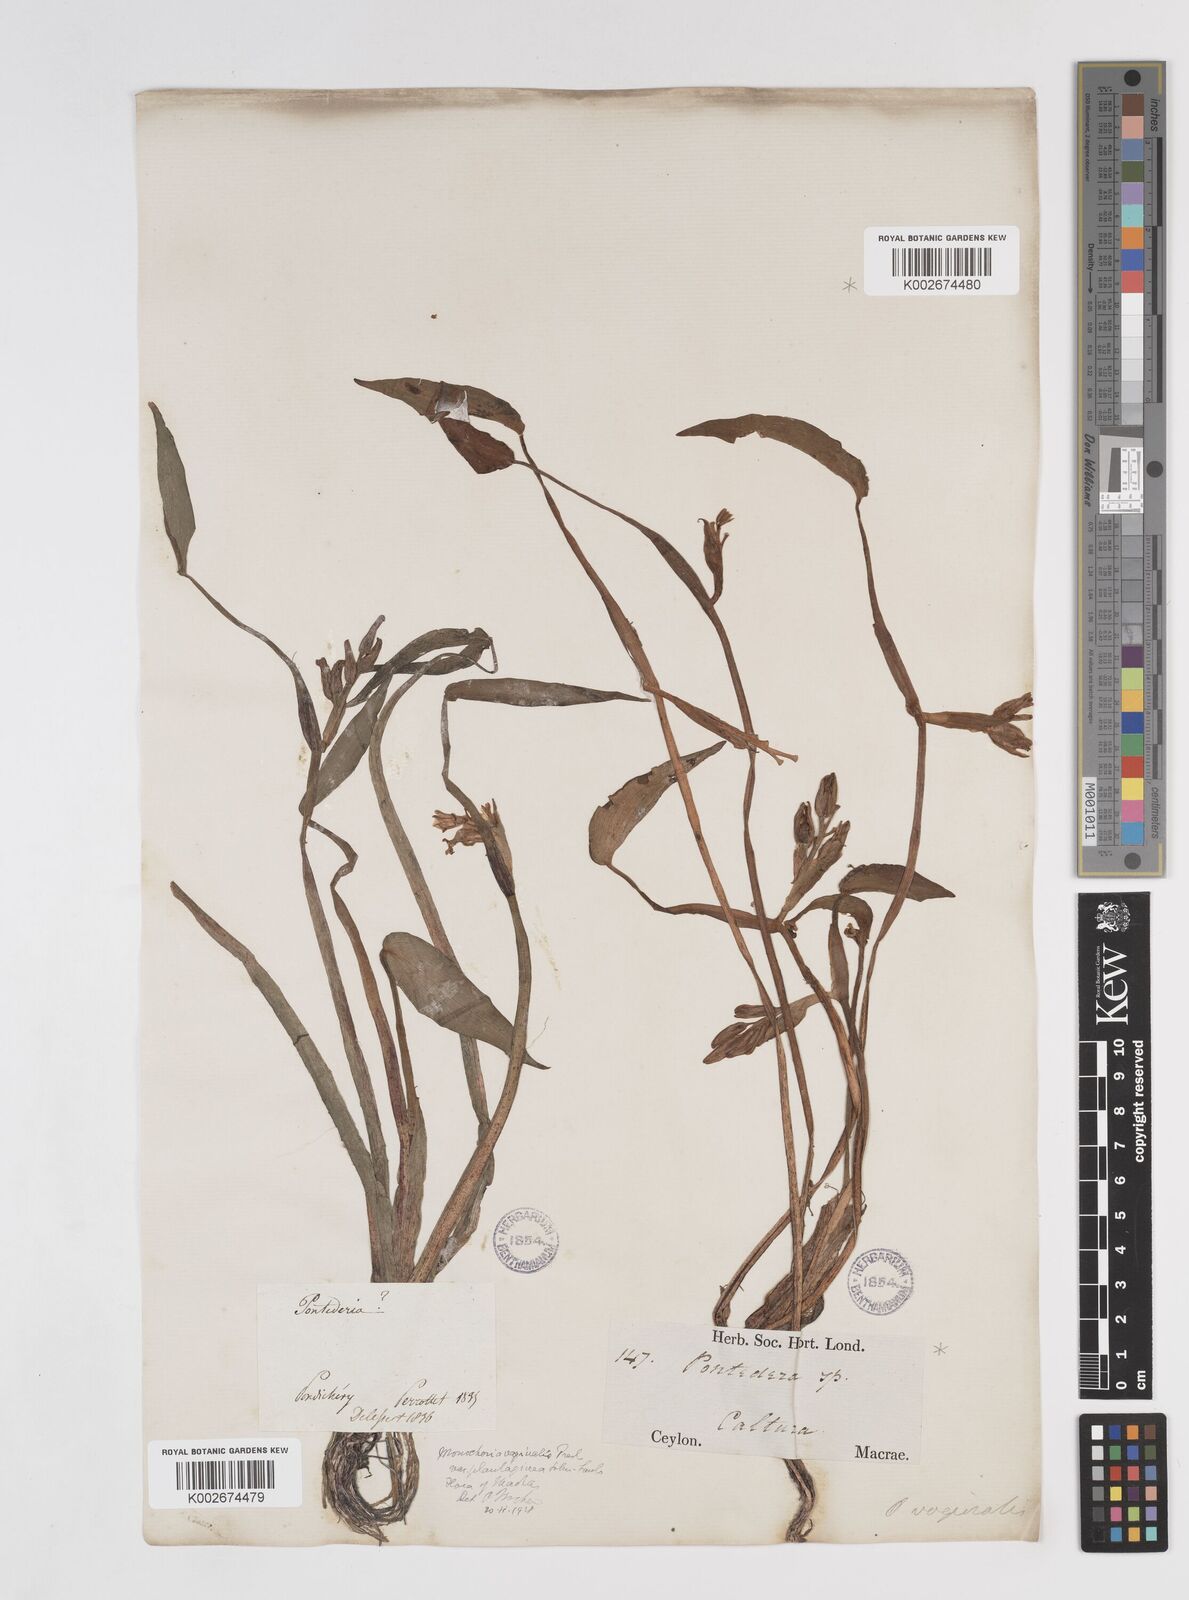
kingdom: Plantae
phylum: Tracheophyta
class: Liliopsida
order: Commelinales
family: Pontederiaceae
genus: Pontederia
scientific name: Pontederia vaginalis
